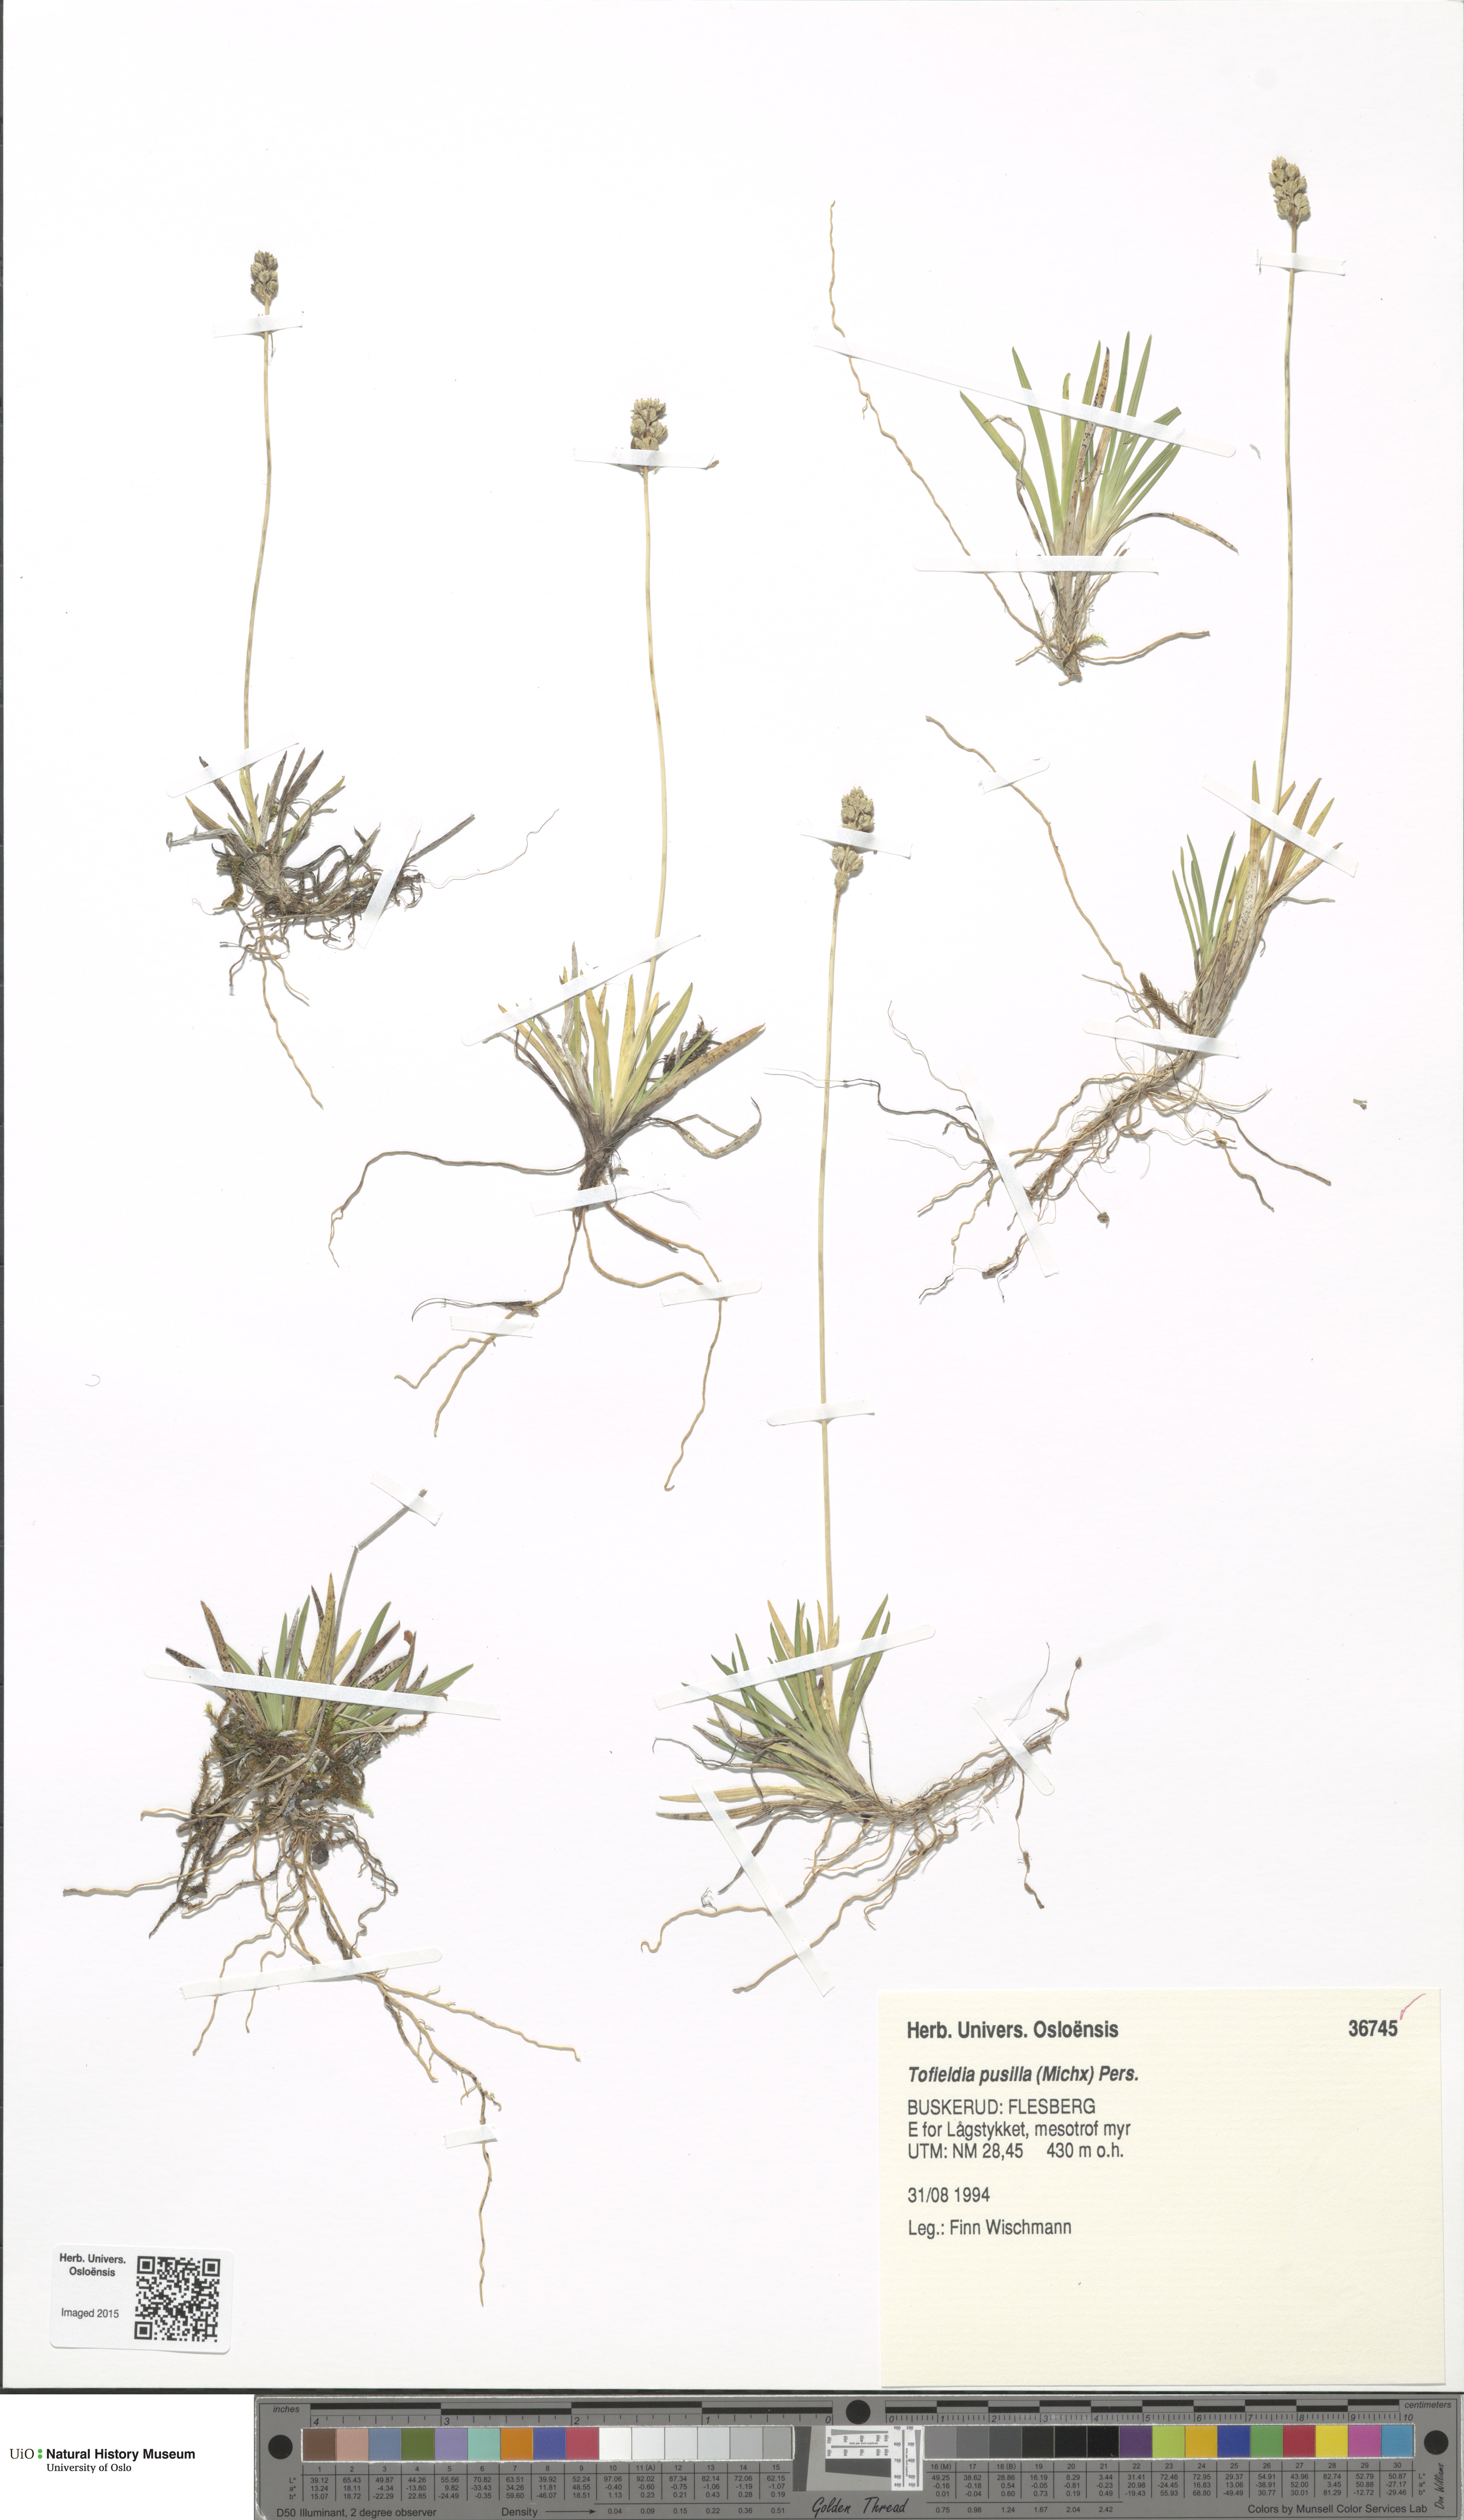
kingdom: Plantae
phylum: Tracheophyta
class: Liliopsida
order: Alismatales
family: Tofieldiaceae
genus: Tofieldia
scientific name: Tofieldia pusilla
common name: Scottish false asphodel
